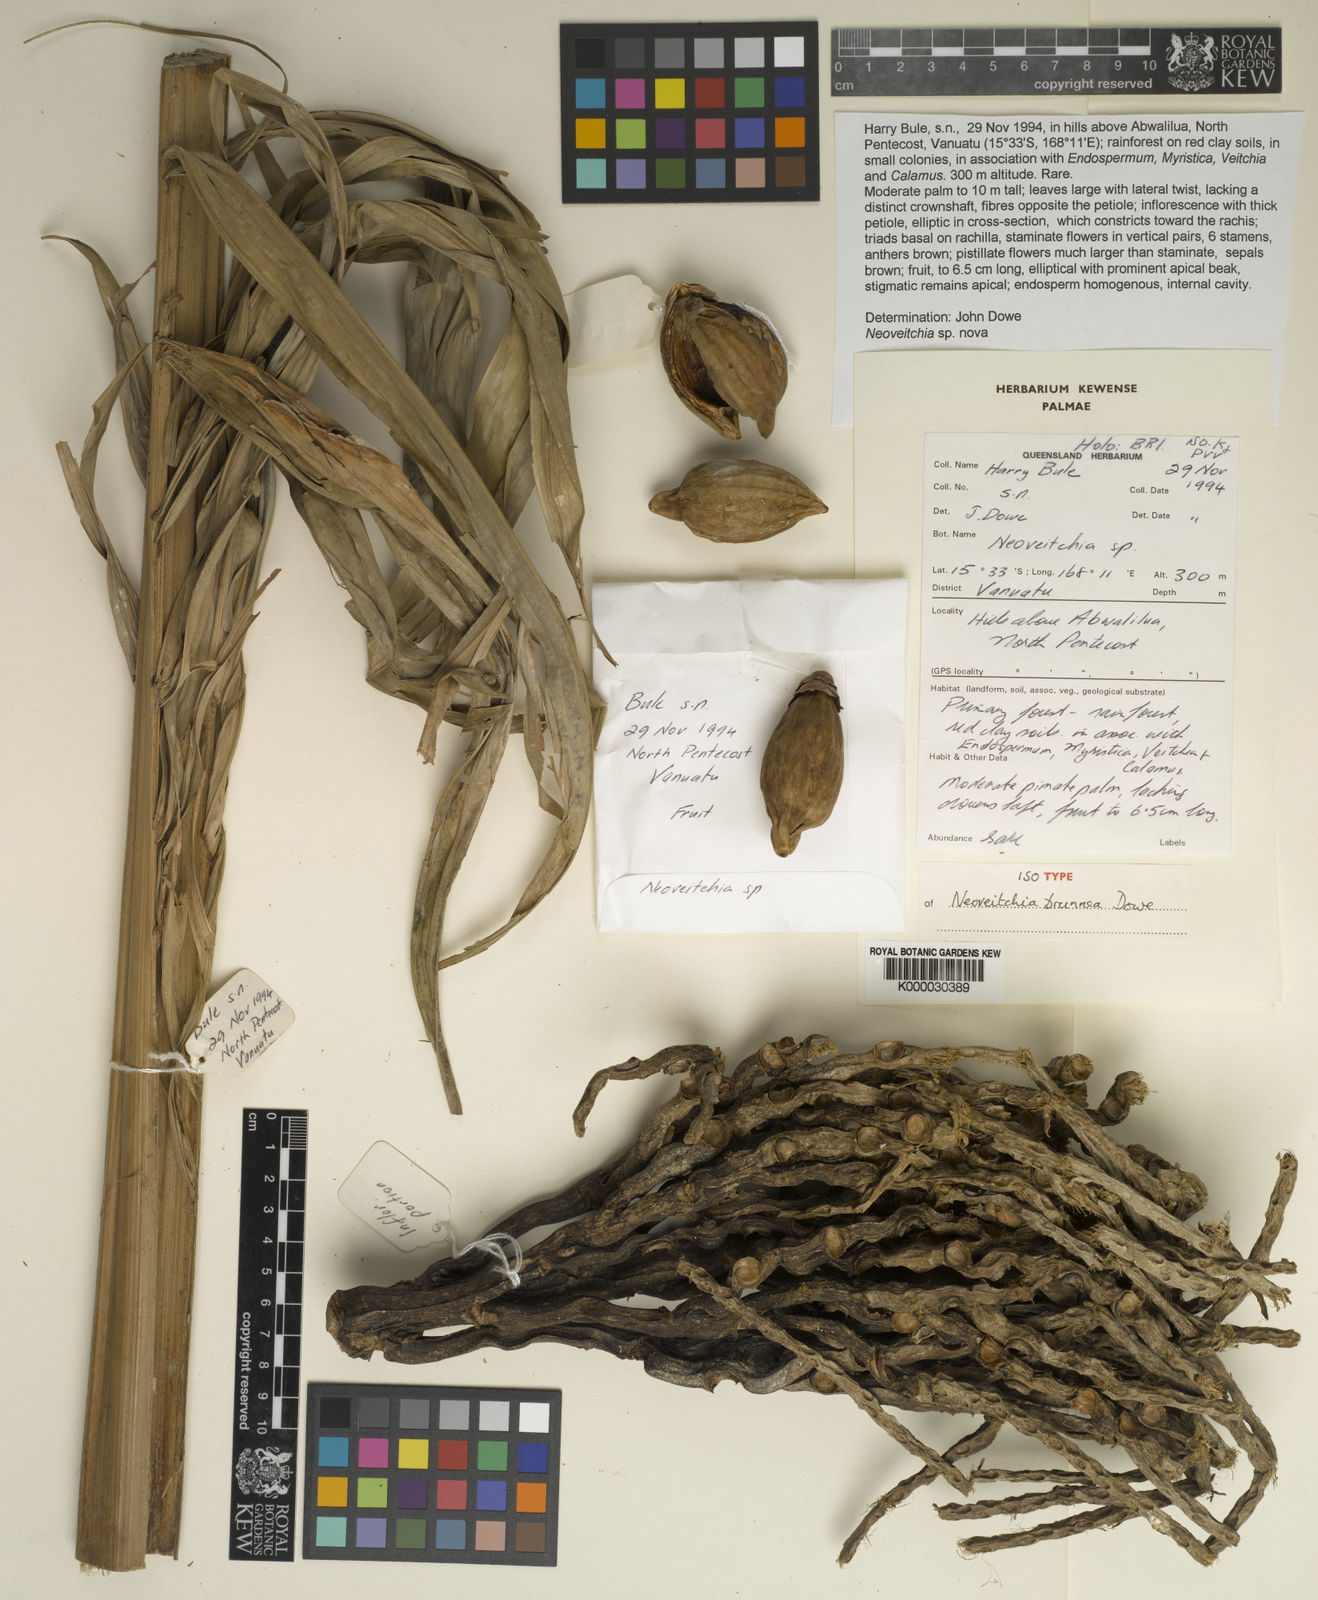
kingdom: Plantae
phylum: Tracheophyta
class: Liliopsida
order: Arecales
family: Arecaceae
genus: Neoveitchia
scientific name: Neoveitchia brunnea
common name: Devil palm
